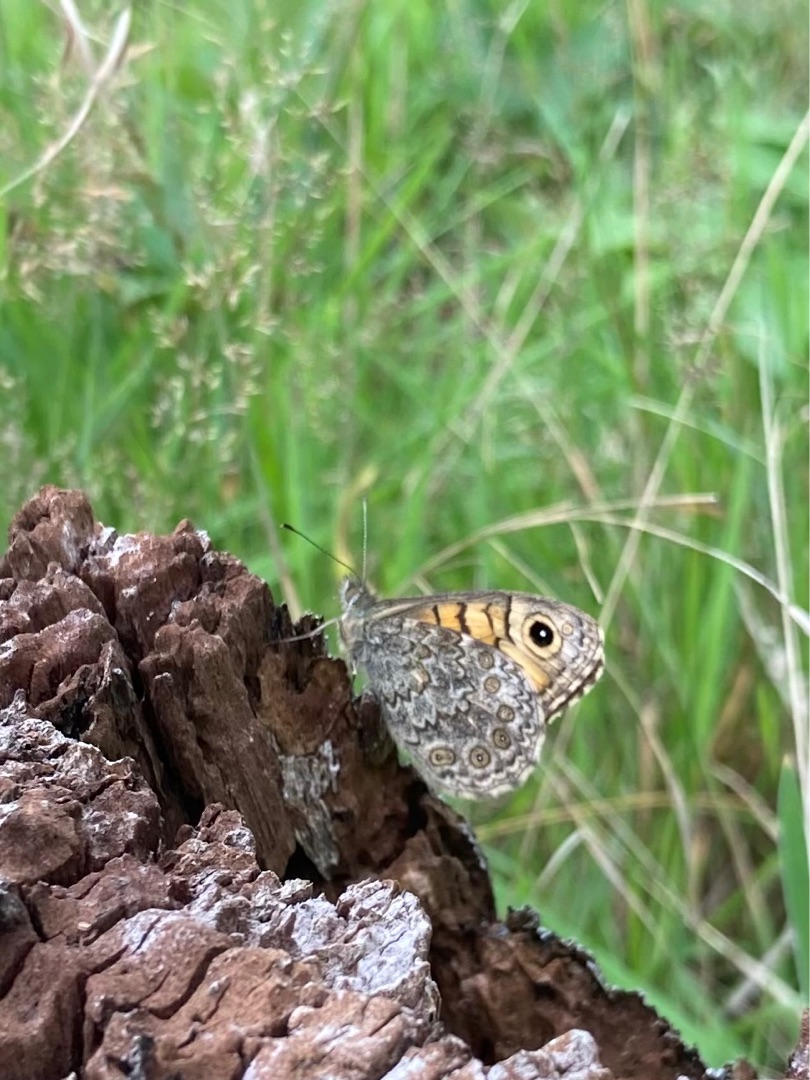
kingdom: Animalia
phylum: Arthropoda
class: Insecta
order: Lepidoptera
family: Nymphalidae
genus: Pararge
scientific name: Pararge Lasiommata megera
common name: Vejrandøje
